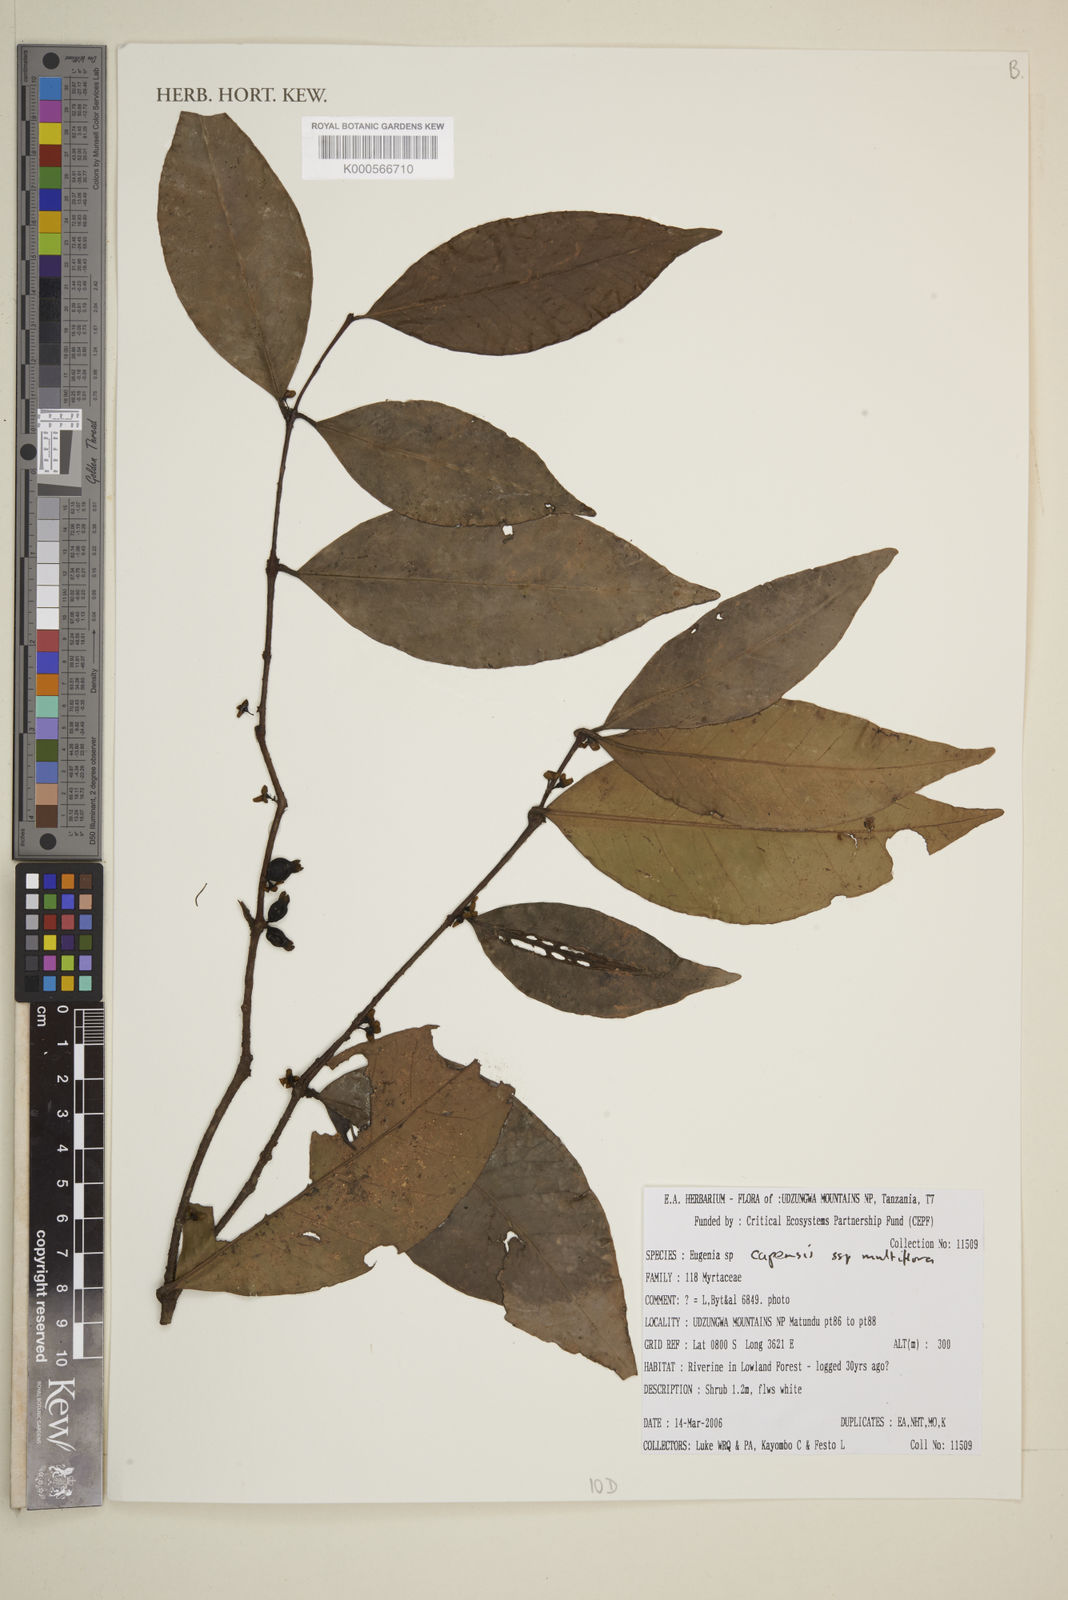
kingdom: Plantae
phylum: Tracheophyta
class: Magnoliopsida
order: Myrtales
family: Myrtaceae
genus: Eugenia
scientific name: Eugenia capensis
